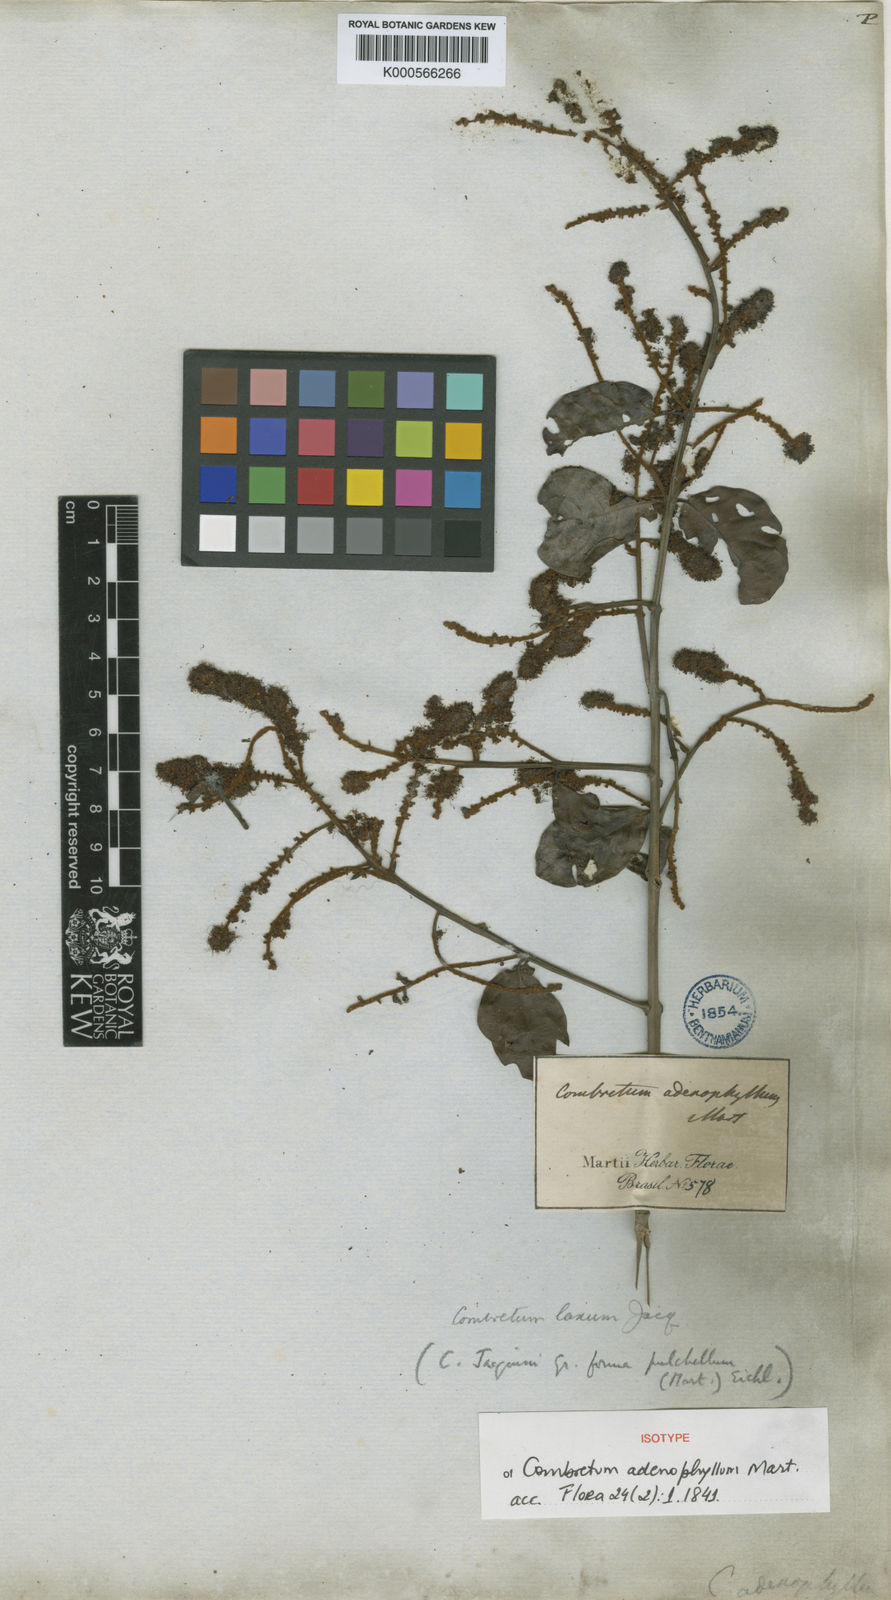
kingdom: Plantae
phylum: Tracheophyta
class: Magnoliopsida
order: Myrtales
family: Combretaceae
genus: Combretum
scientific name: Combretum laxum
